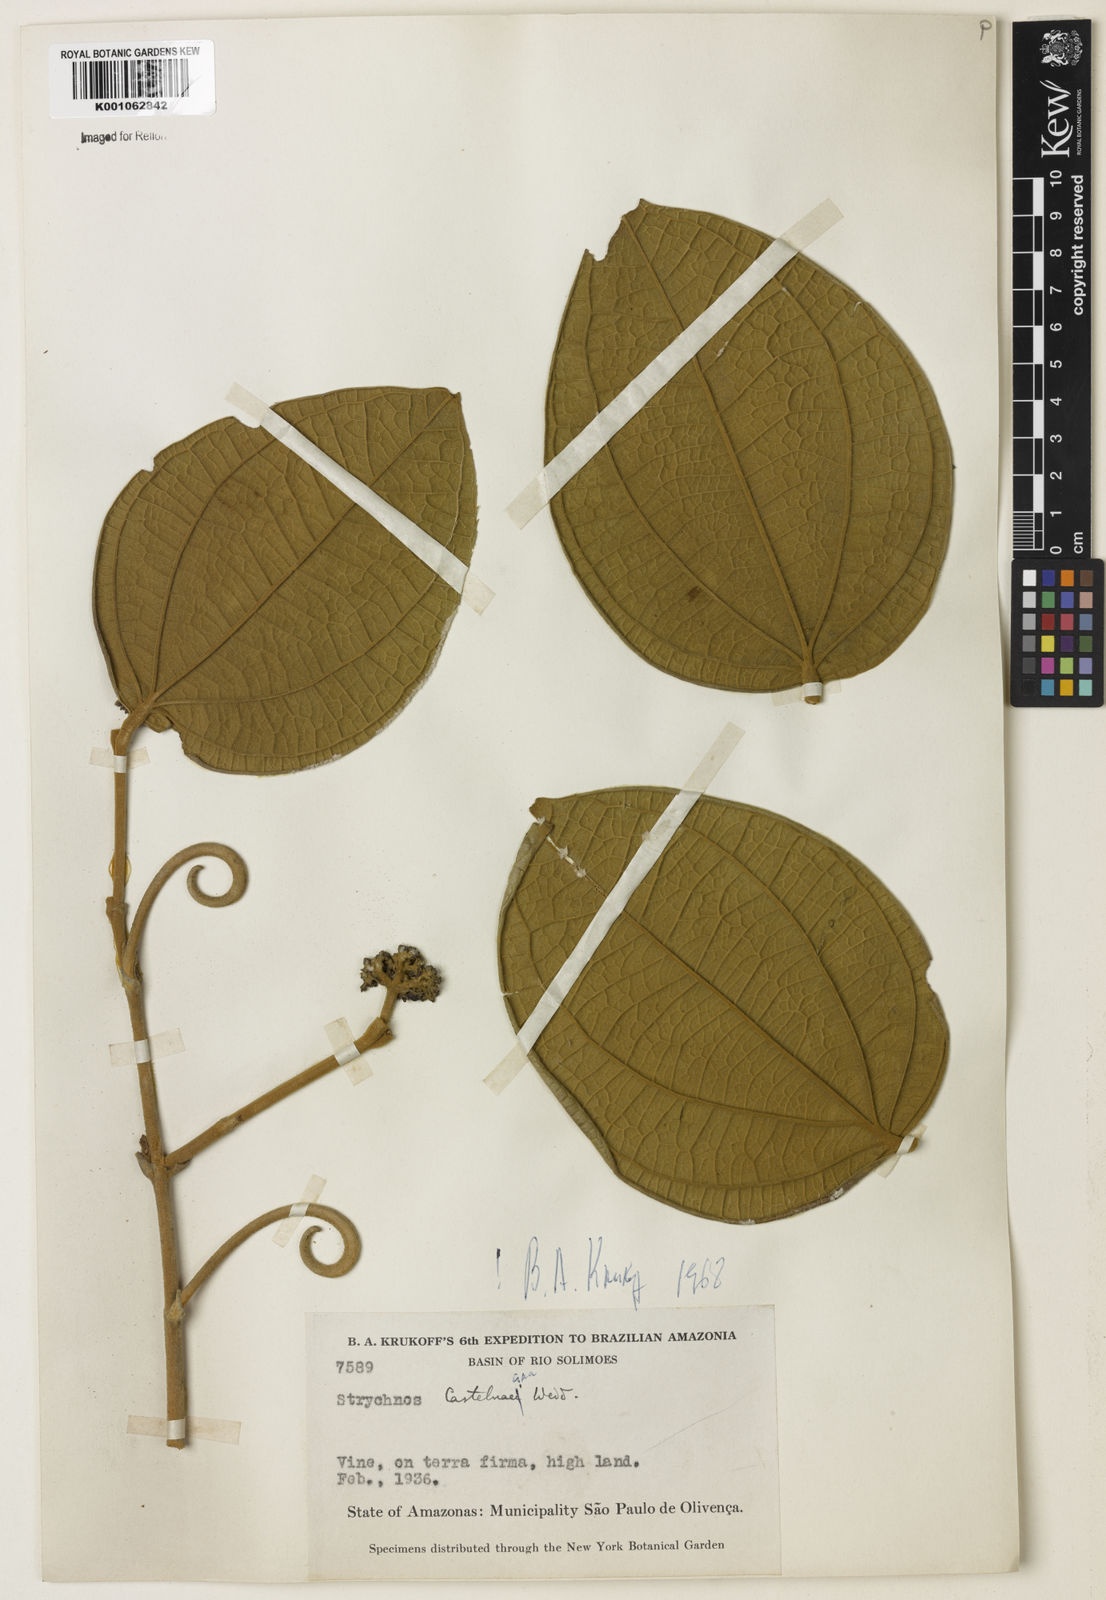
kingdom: Plantae
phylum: Tracheophyta
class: Magnoliopsida
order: Gentianales
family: Loganiaceae
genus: Strychnos
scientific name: Strychnos
